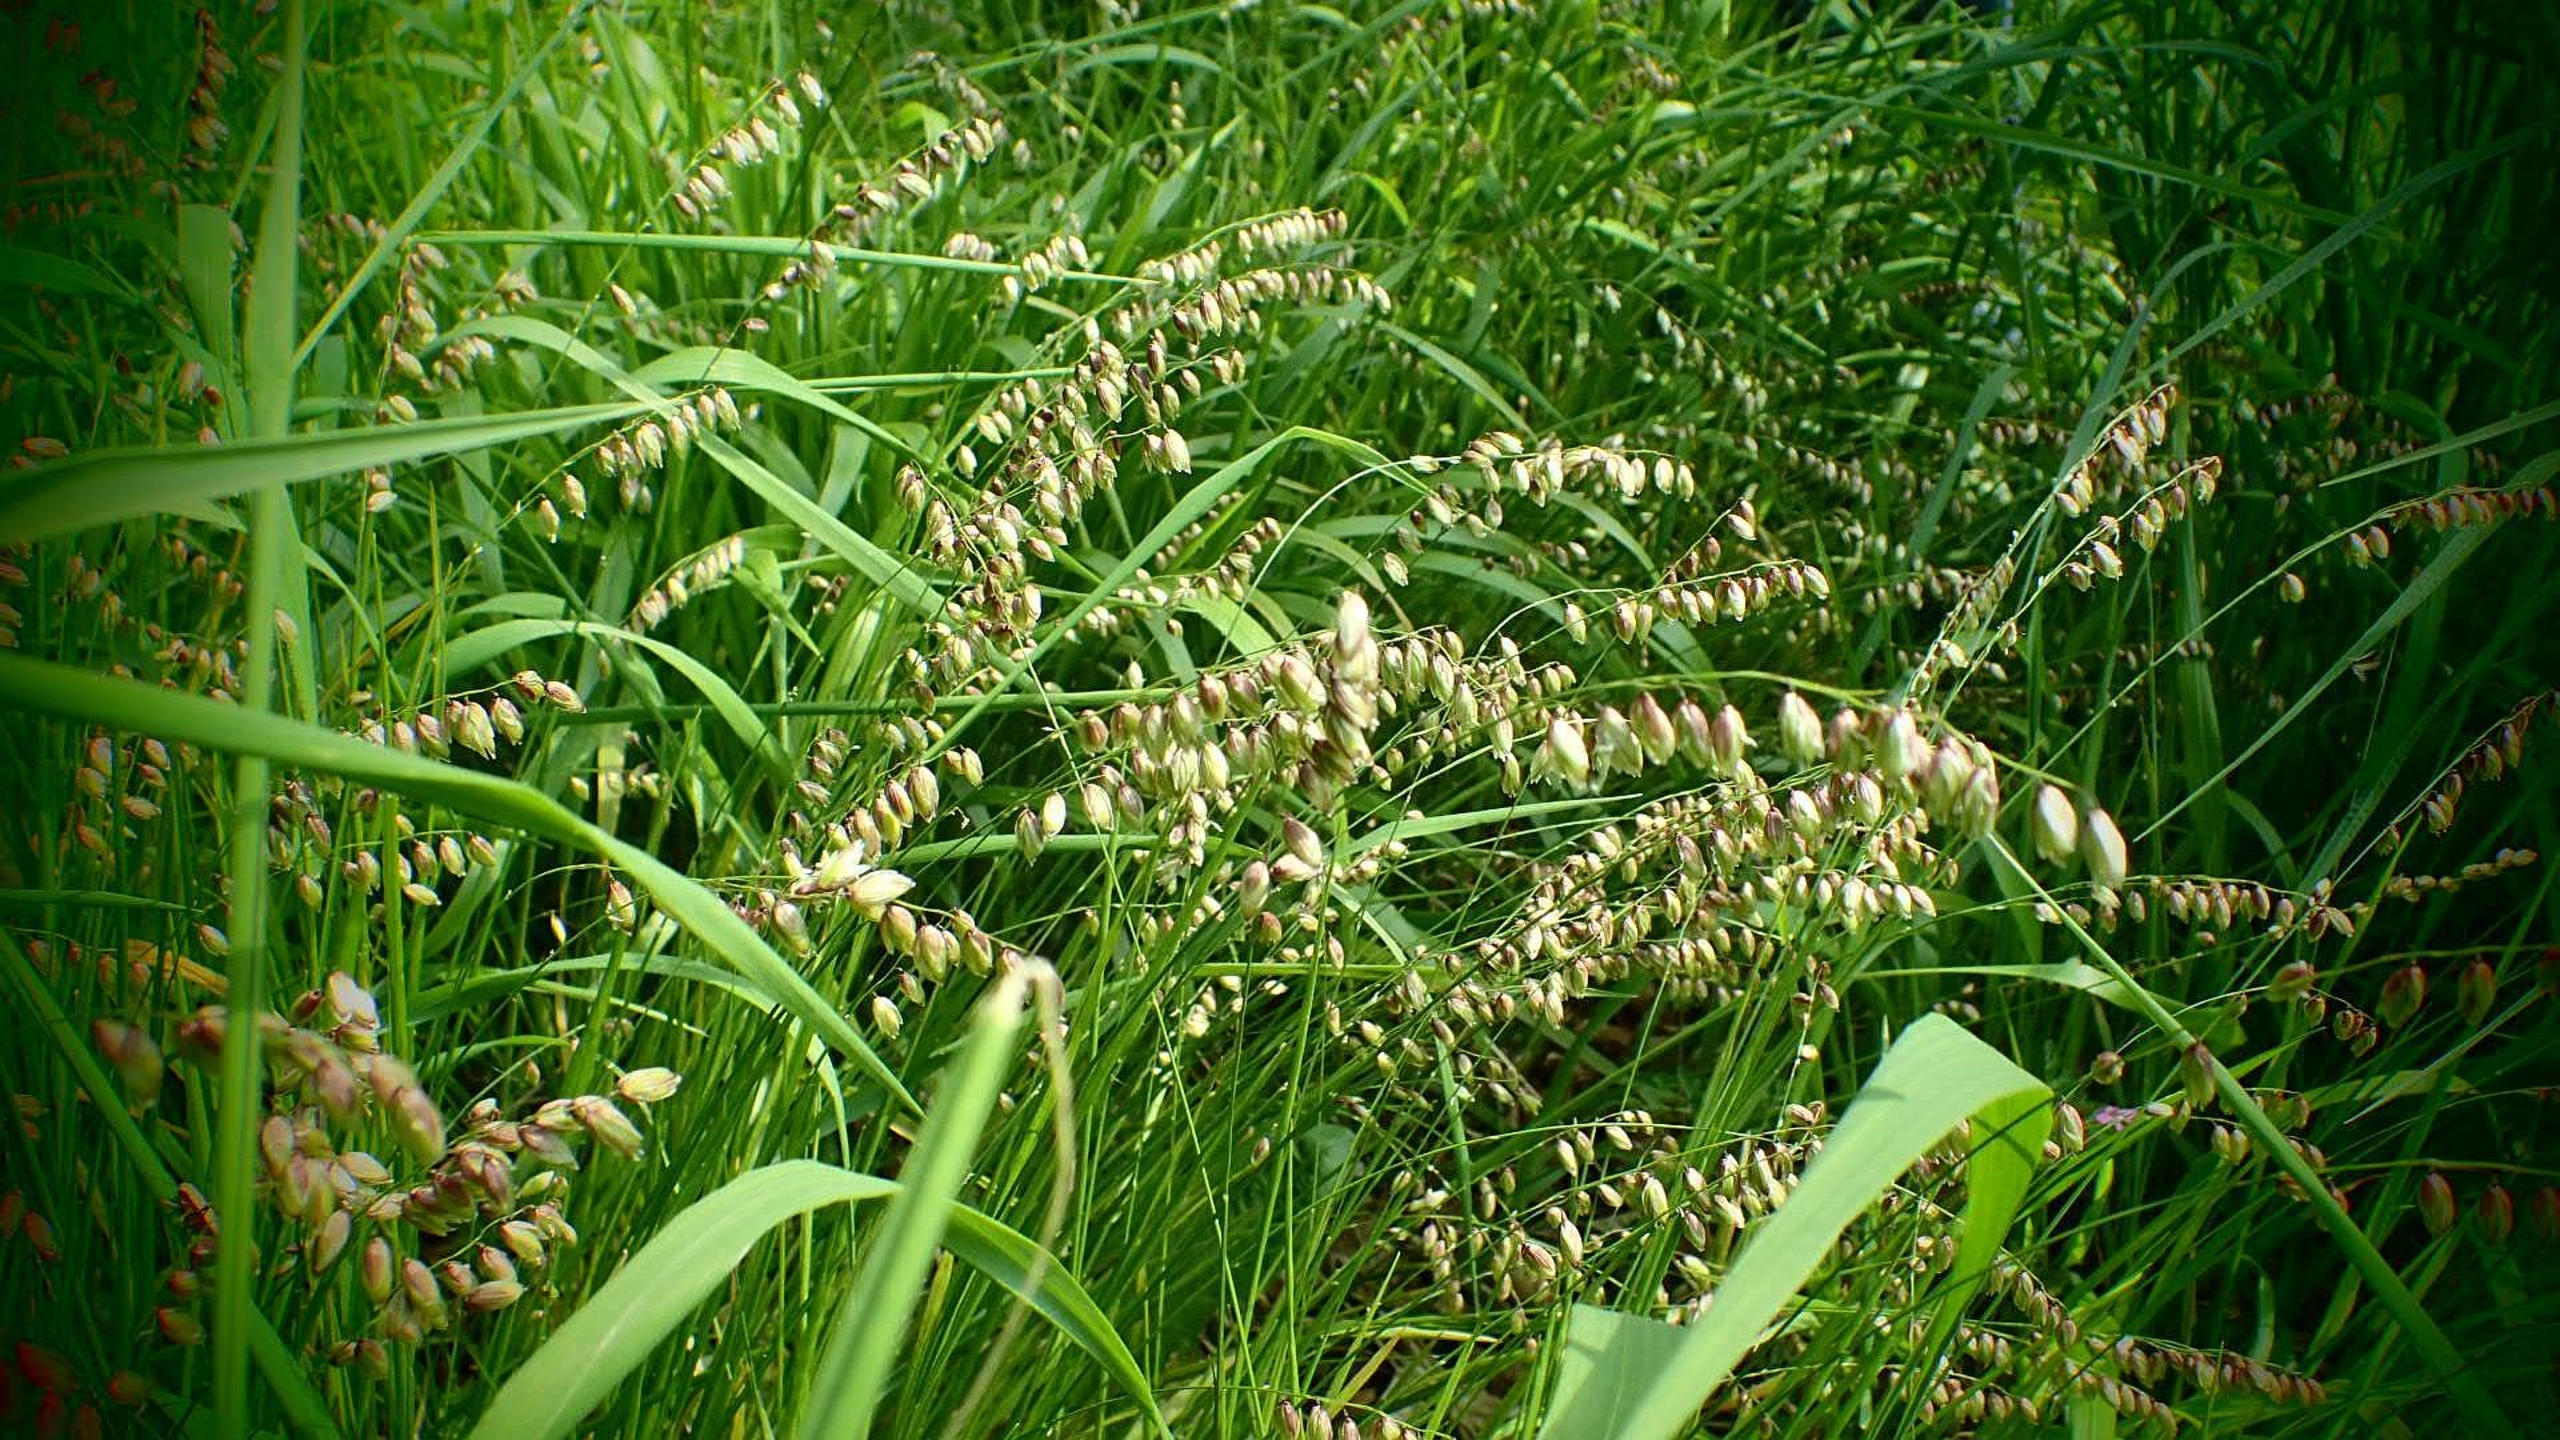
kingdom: Plantae
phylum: Tracheophyta
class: Liliopsida
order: Poales
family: Poaceae
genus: Melica
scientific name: Melica nutans
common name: Nikkende flitteraks
